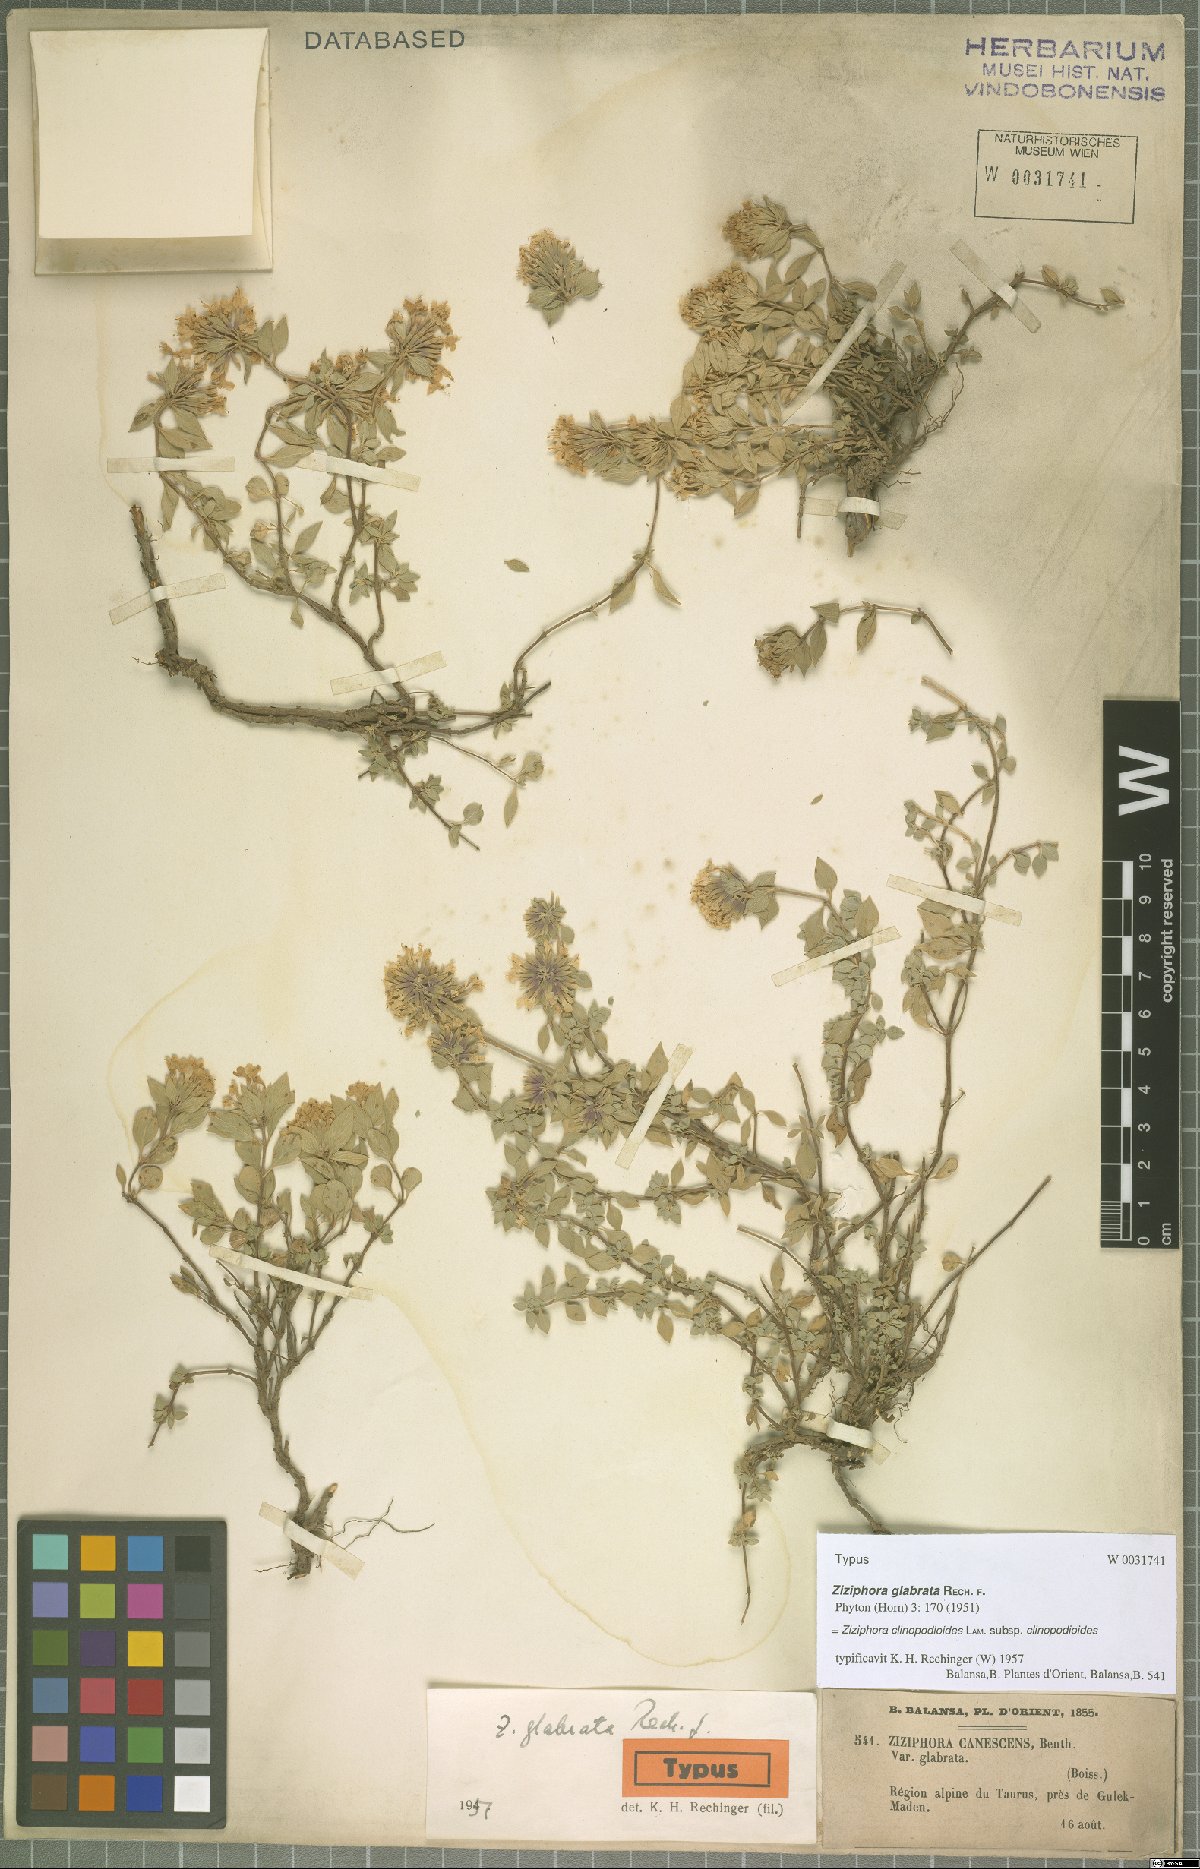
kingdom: Plantae
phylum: Tracheophyta
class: Magnoliopsida
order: Lamiales
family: Lamiaceae
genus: Ziziphora
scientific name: Ziziphora clinopodioides
